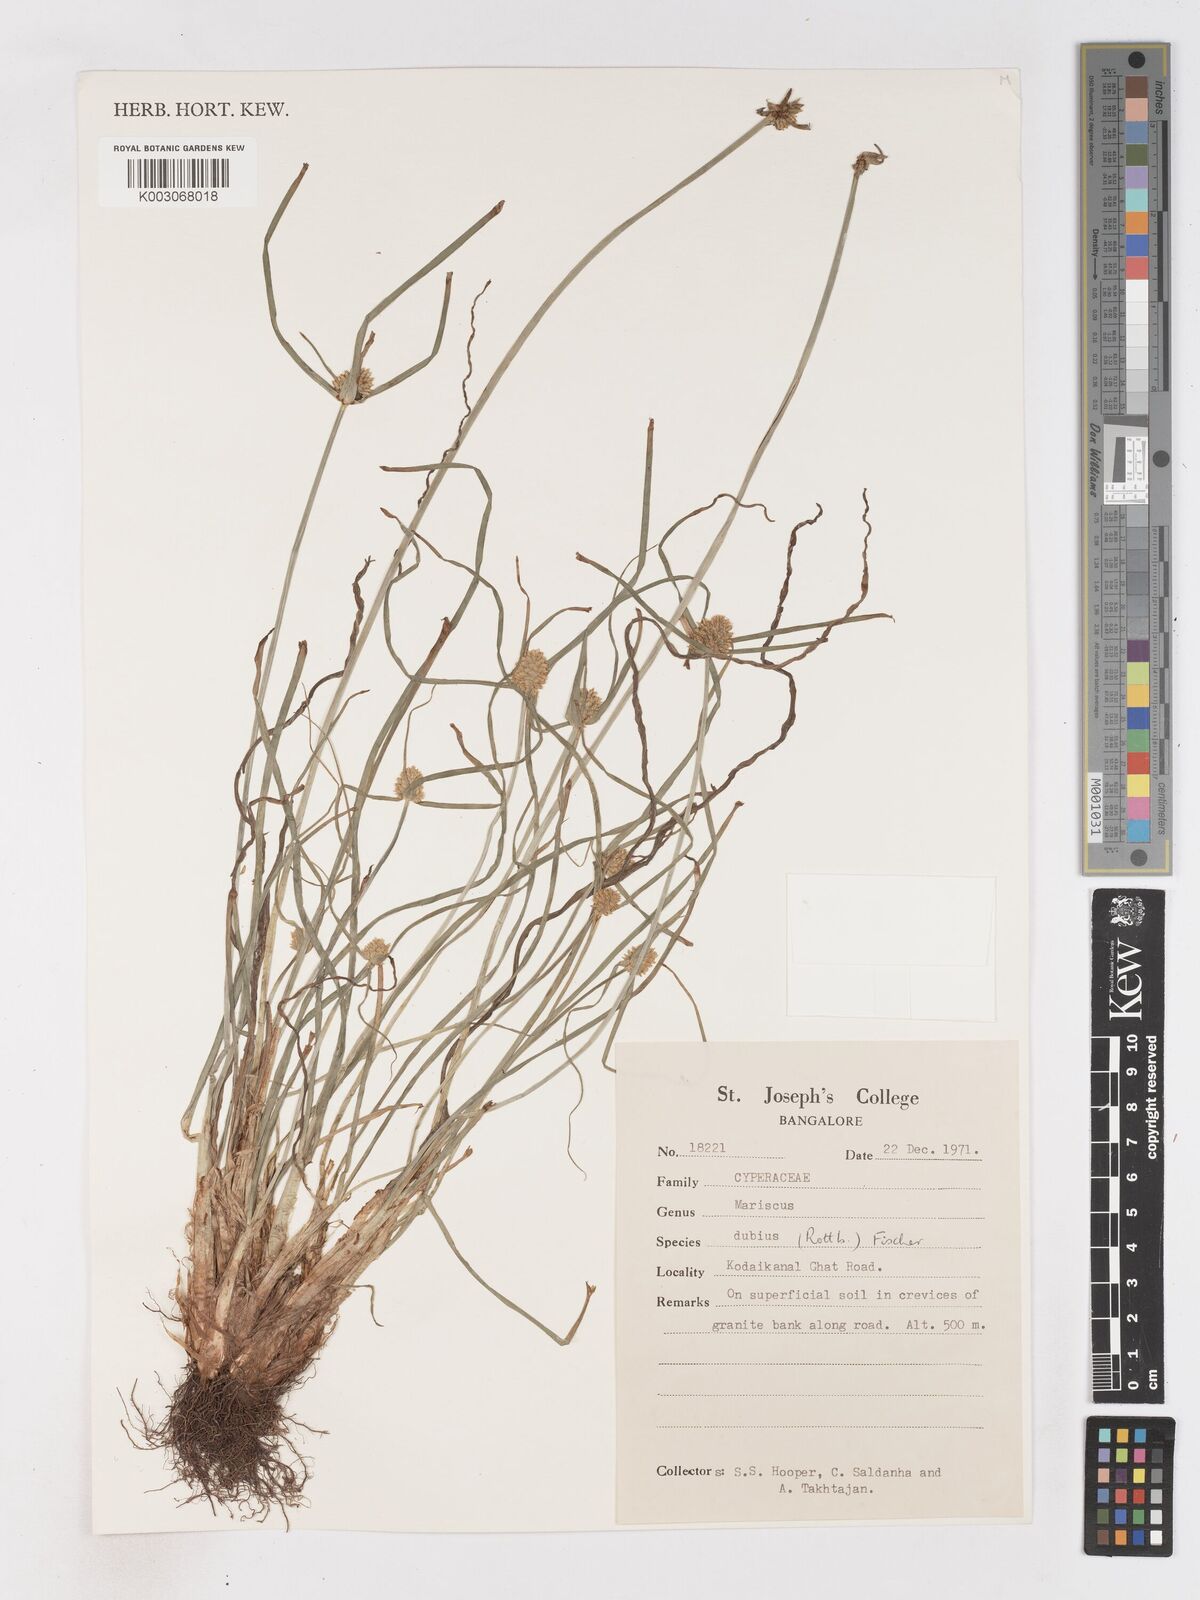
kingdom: Plantae
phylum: Tracheophyta
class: Liliopsida
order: Poales
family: Cyperaceae
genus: Cyperus
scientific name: Cyperus dubius
